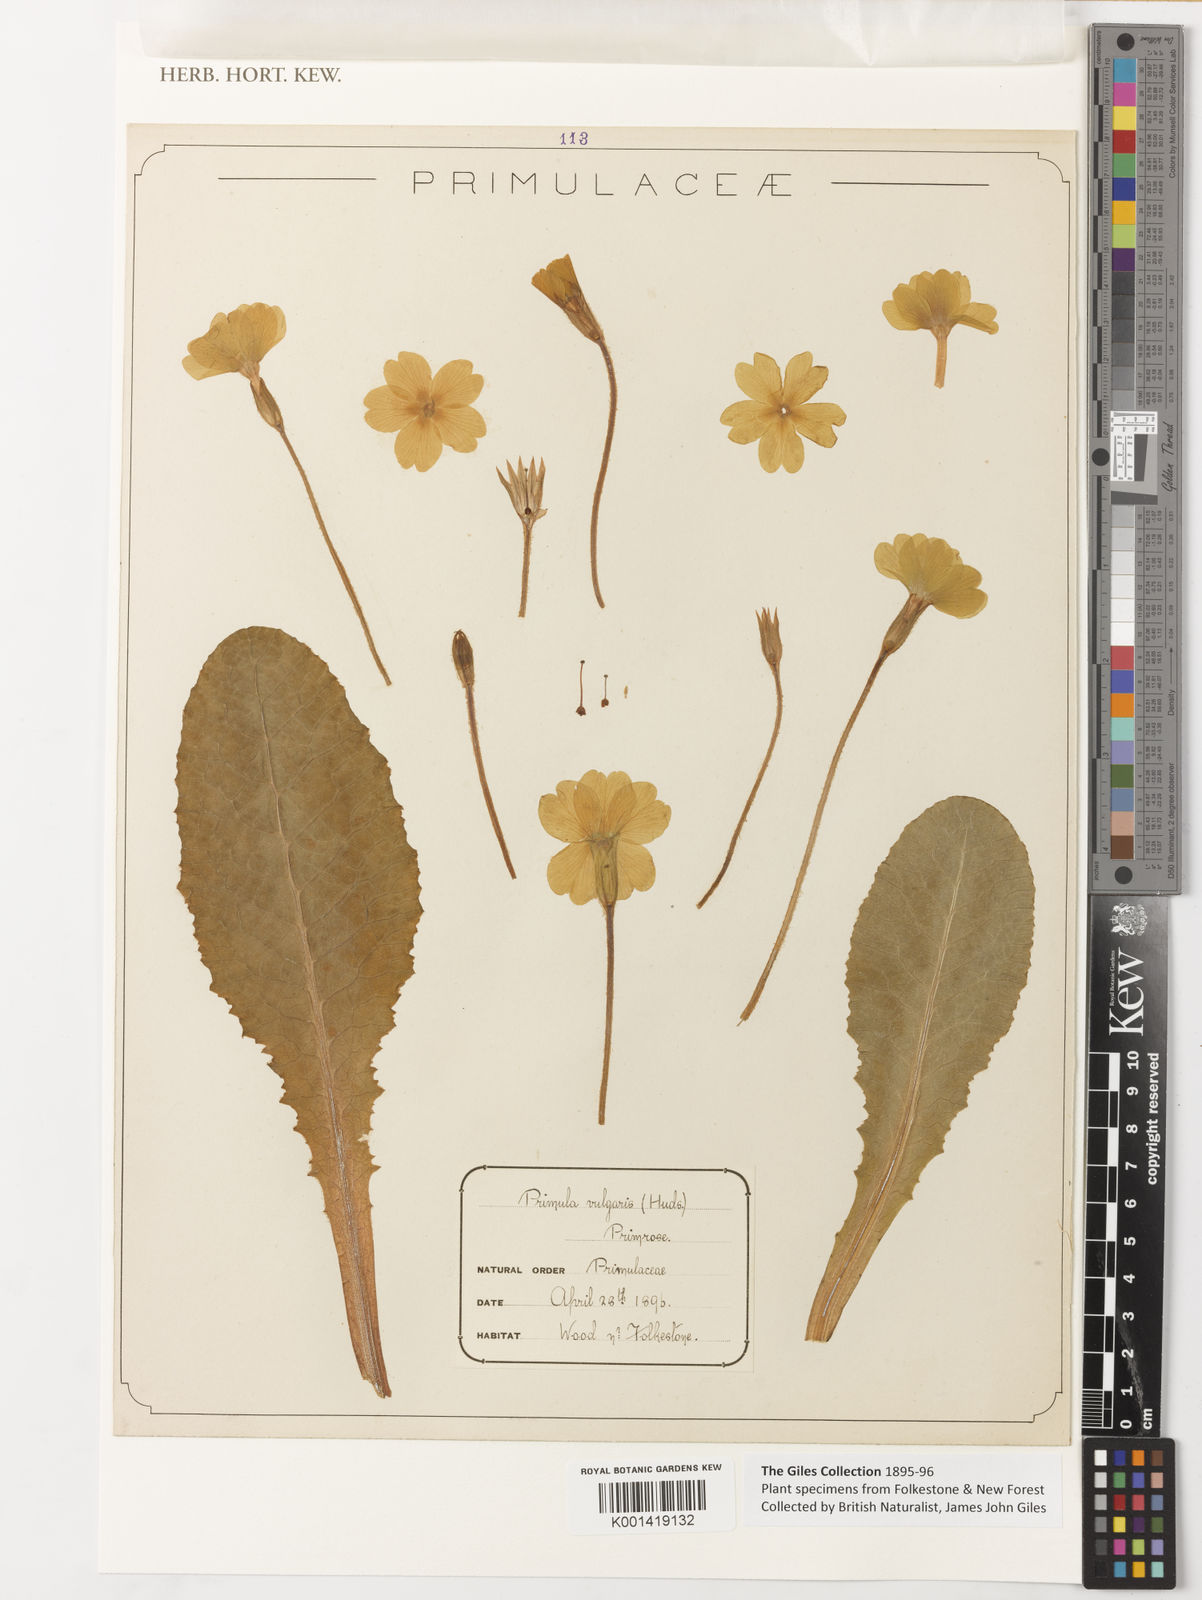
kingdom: Plantae
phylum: Tracheophyta
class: Magnoliopsida
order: Ericales
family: Primulaceae
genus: Primula
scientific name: Primula vulgaris
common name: Primrose
